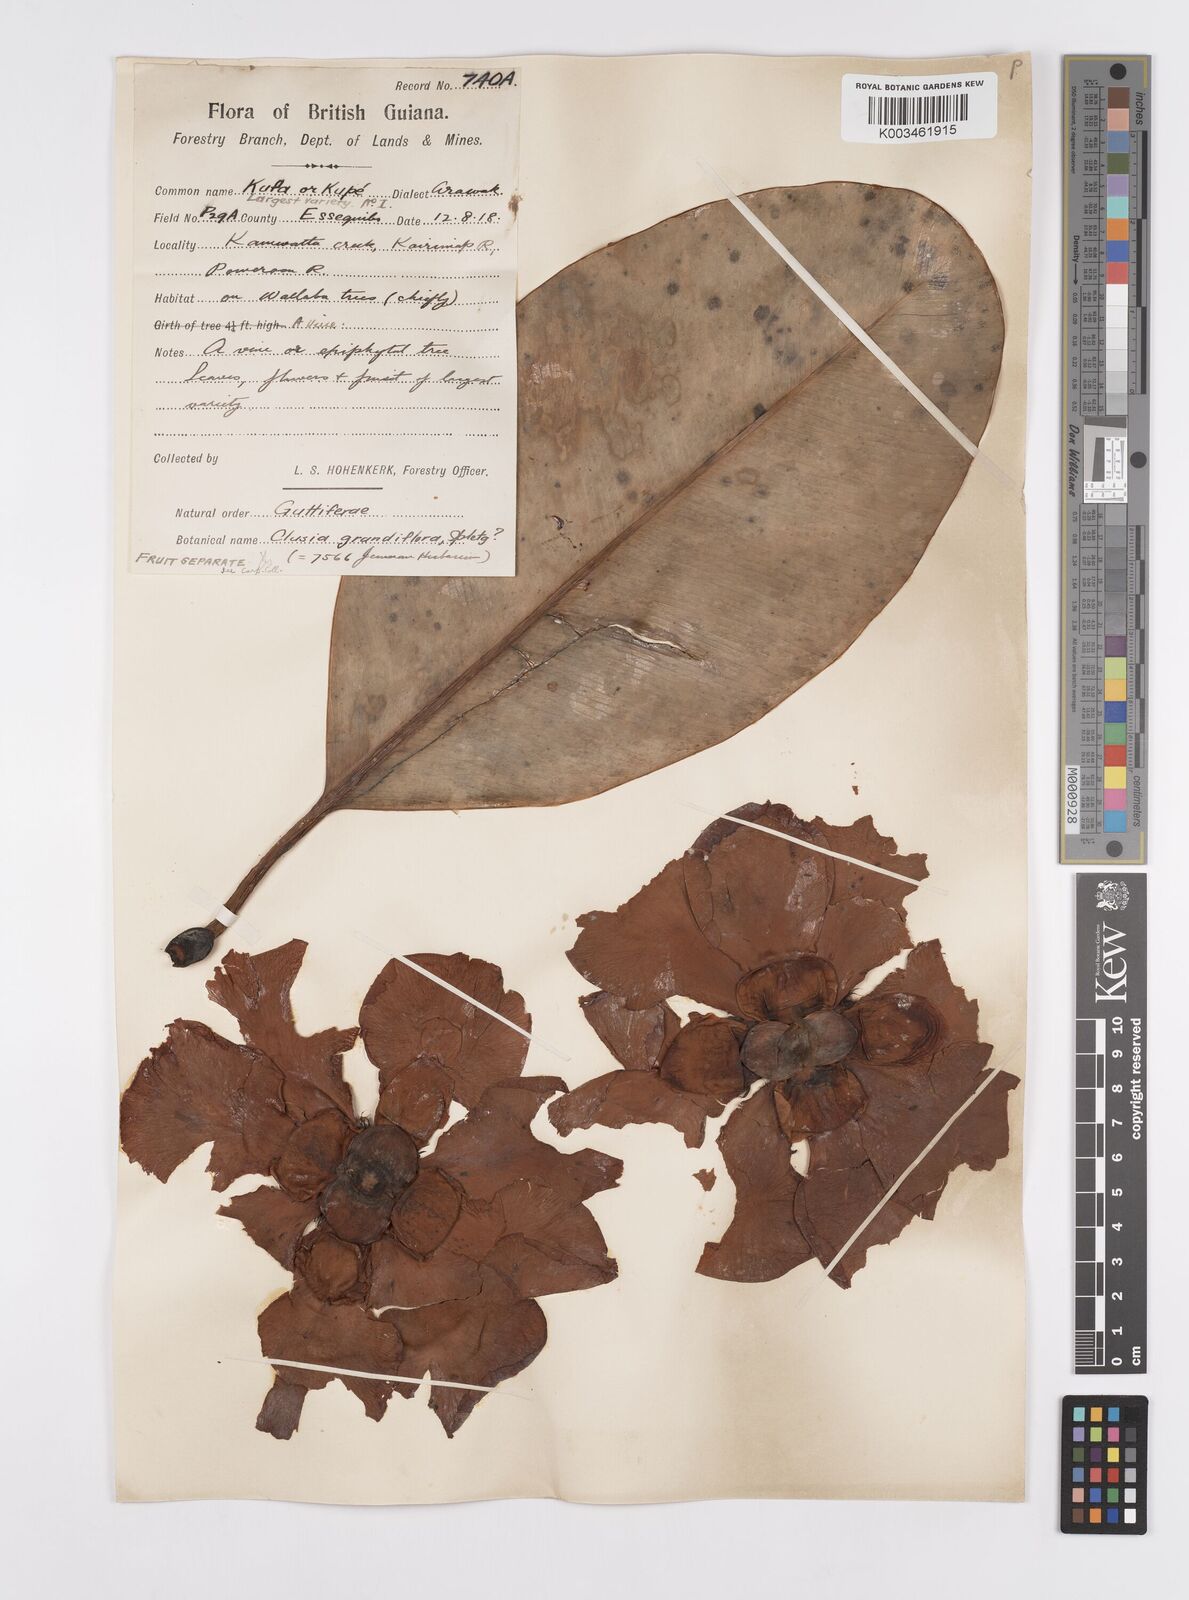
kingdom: Plantae
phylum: Tracheophyta
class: Magnoliopsida
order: Malpighiales
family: Clusiaceae
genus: Clusia
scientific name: Clusia grandiflora
